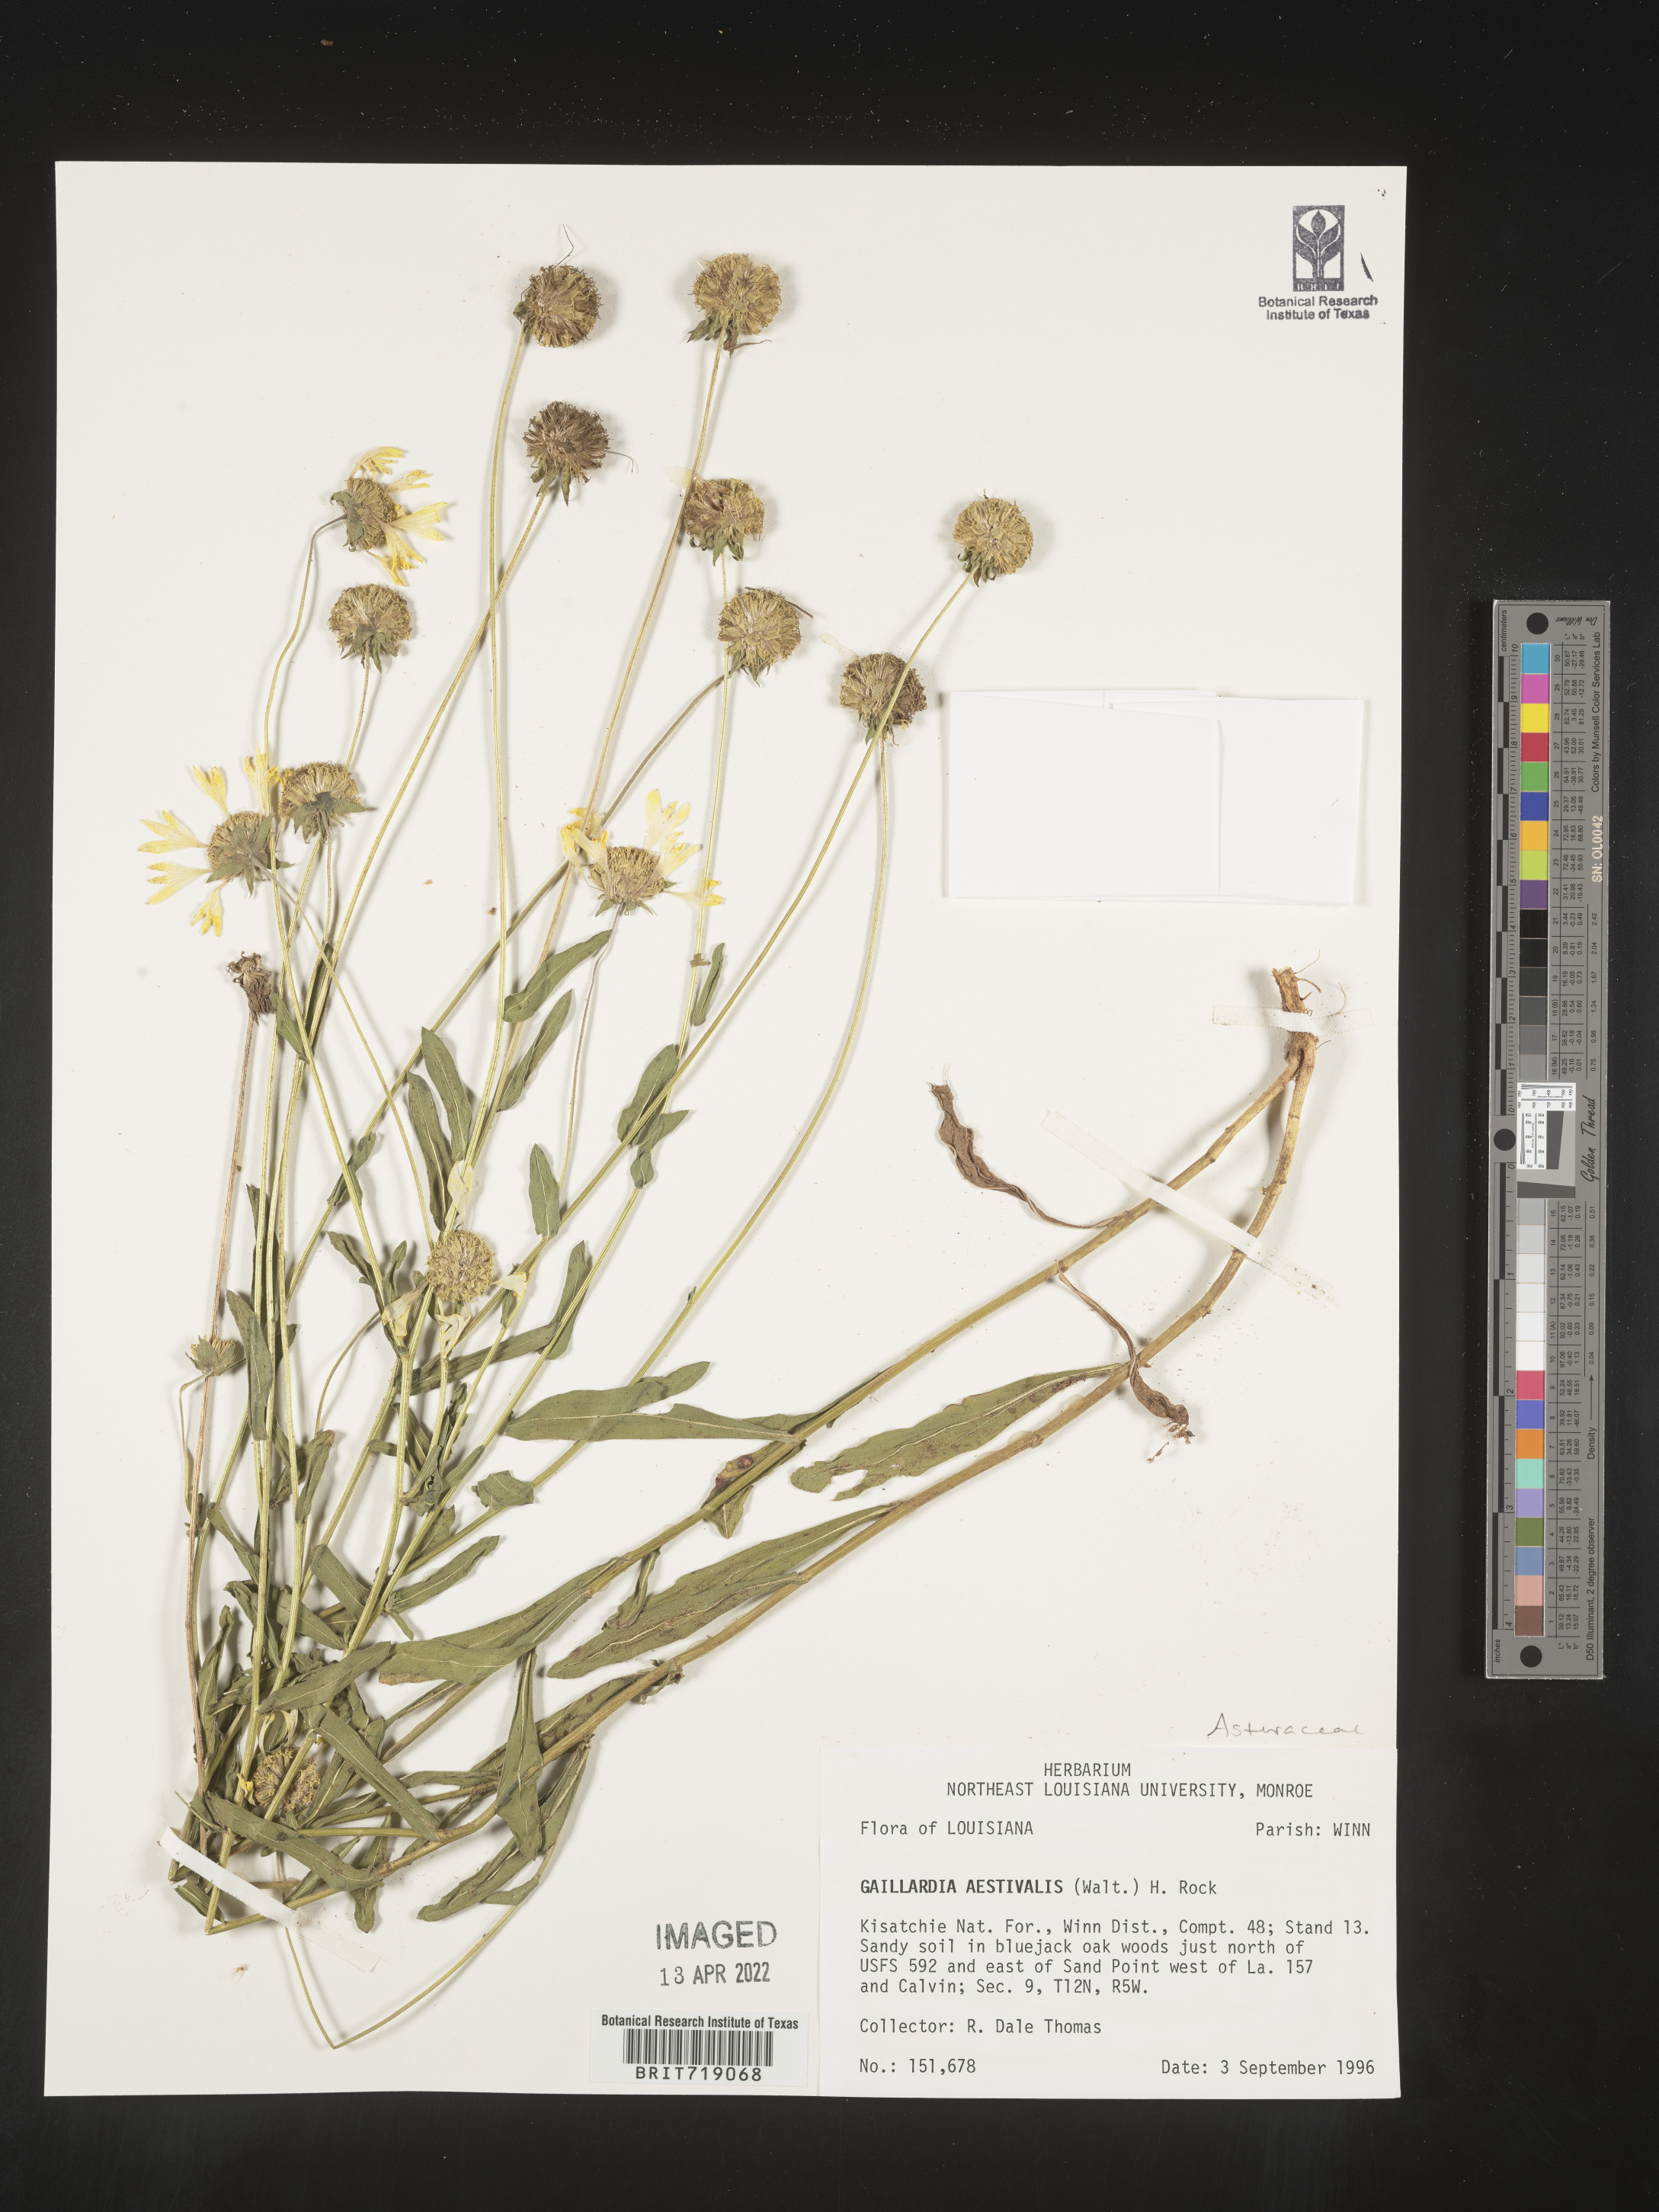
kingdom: Plantae
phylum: Tracheophyta
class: Magnoliopsida
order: Asterales
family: Asteraceae
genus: Gaillardia
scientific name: Gaillardia aestivalis
